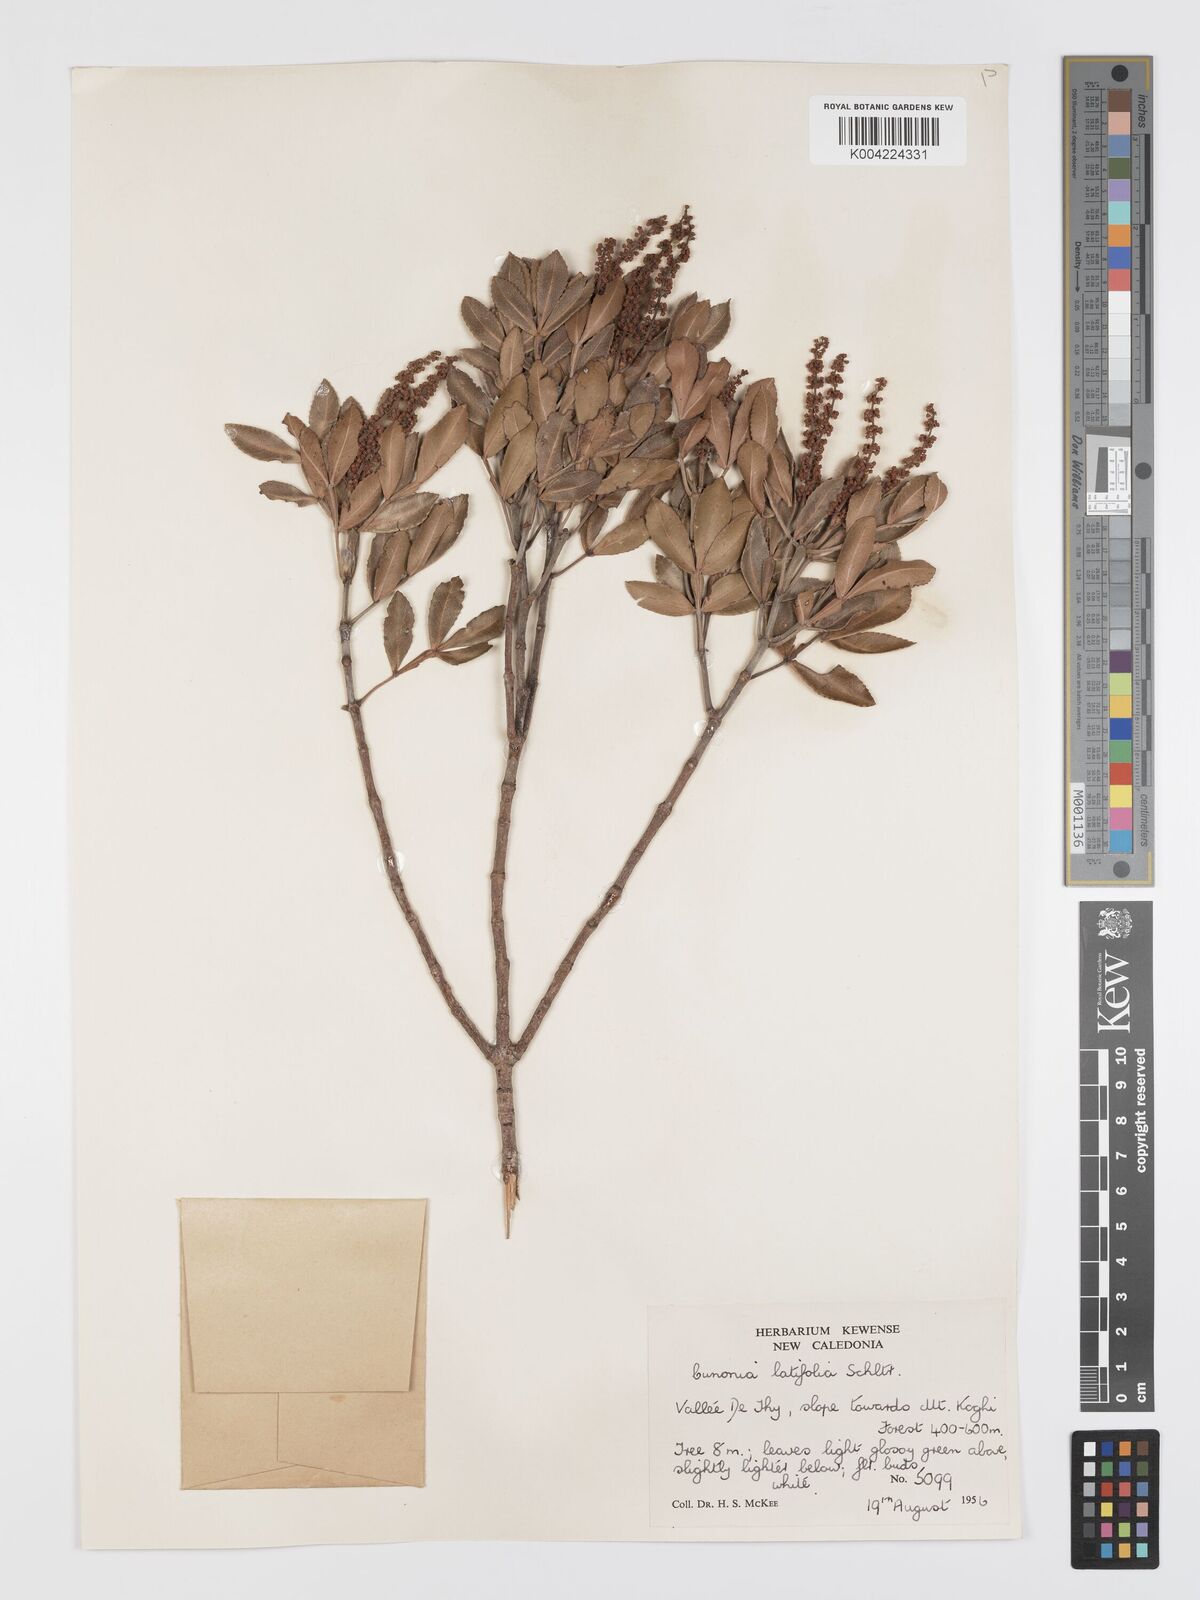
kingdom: Plantae
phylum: Tracheophyta
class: Magnoliopsida
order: Oxalidales
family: Cunoniaceae
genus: Cunonia
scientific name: Cunonia pulchella
